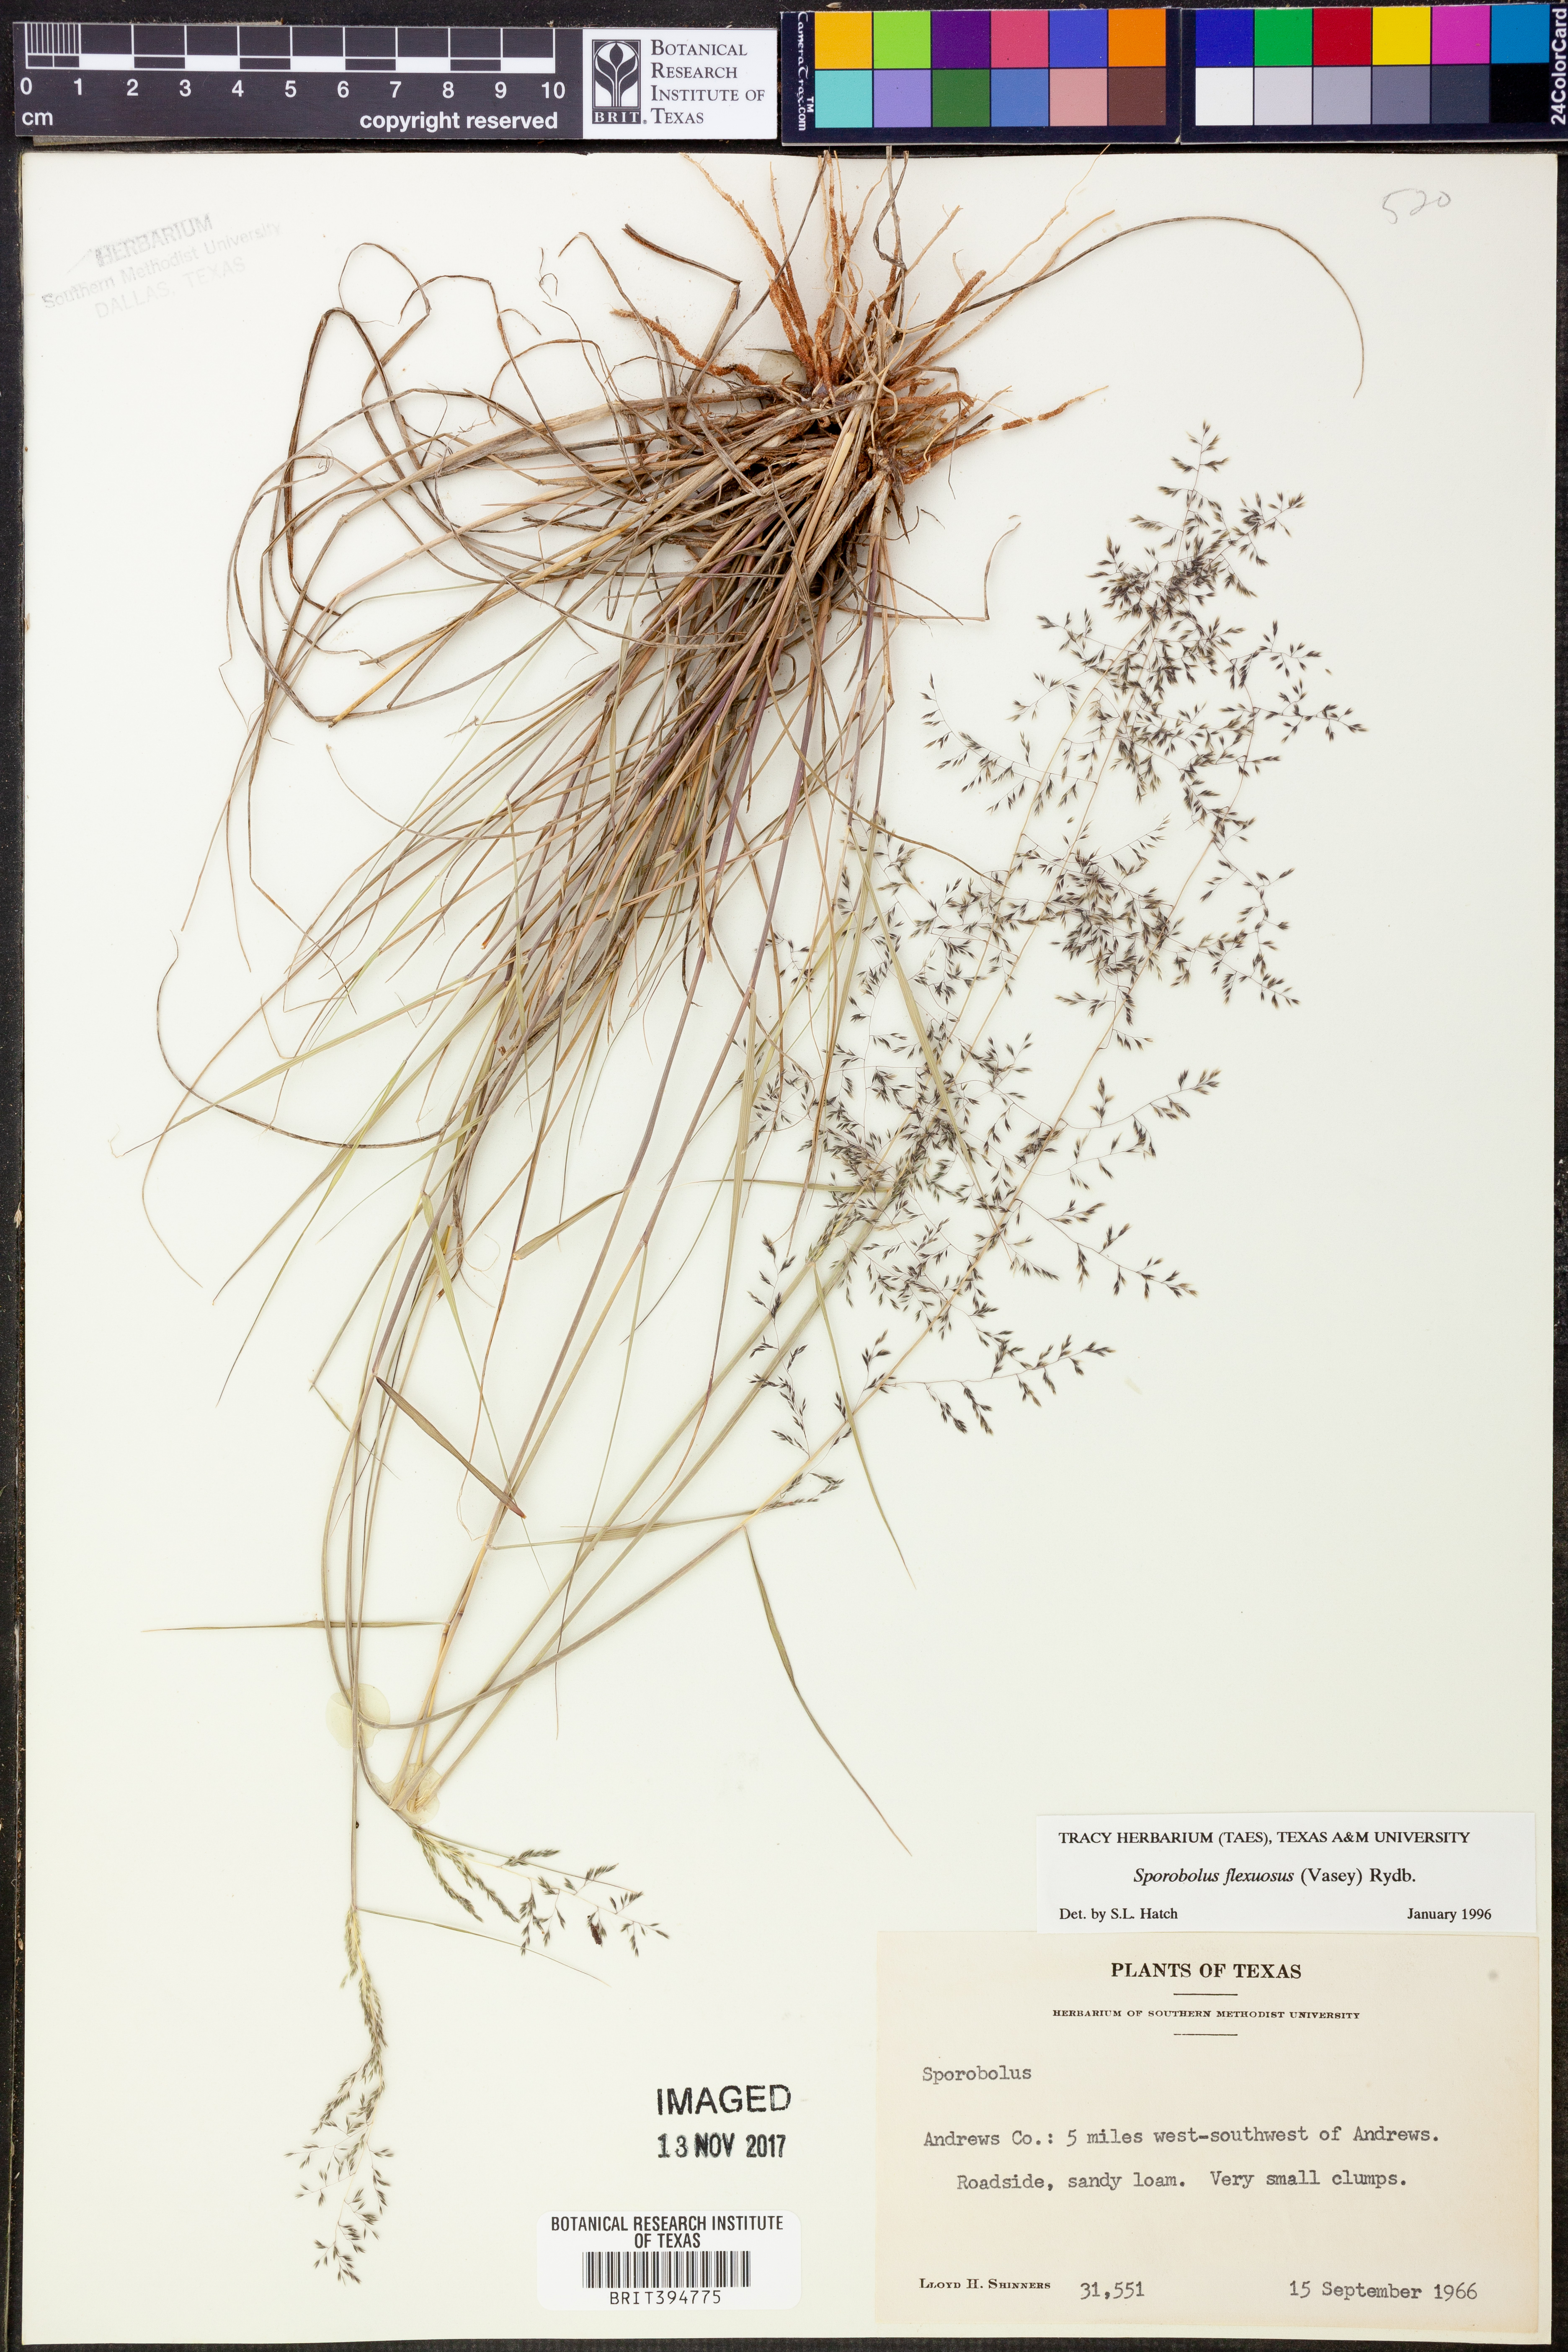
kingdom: Plantae
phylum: Tracheophyta
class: Liliopsida
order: Poales
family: Poaceae
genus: Sporobolus
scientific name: Sporobolus flexuosus
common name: Mesa dropseed
